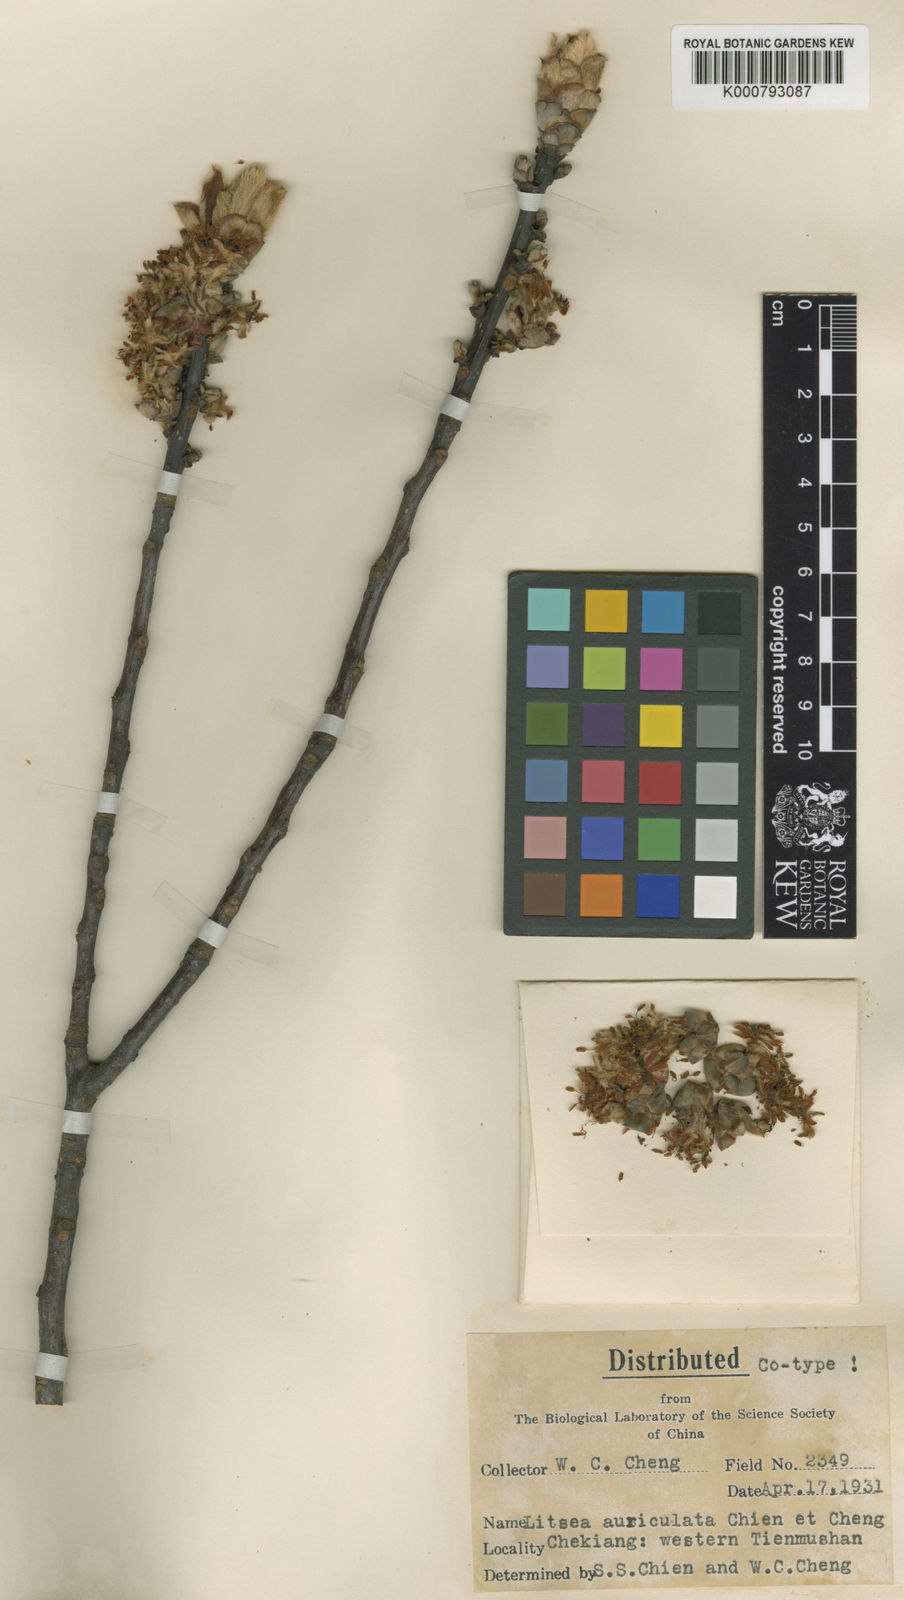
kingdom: Plantae
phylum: Tracheophyta
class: Magnoliopsida
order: Laurales
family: Lauraceae
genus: Litsea
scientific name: Litsea auriculata
